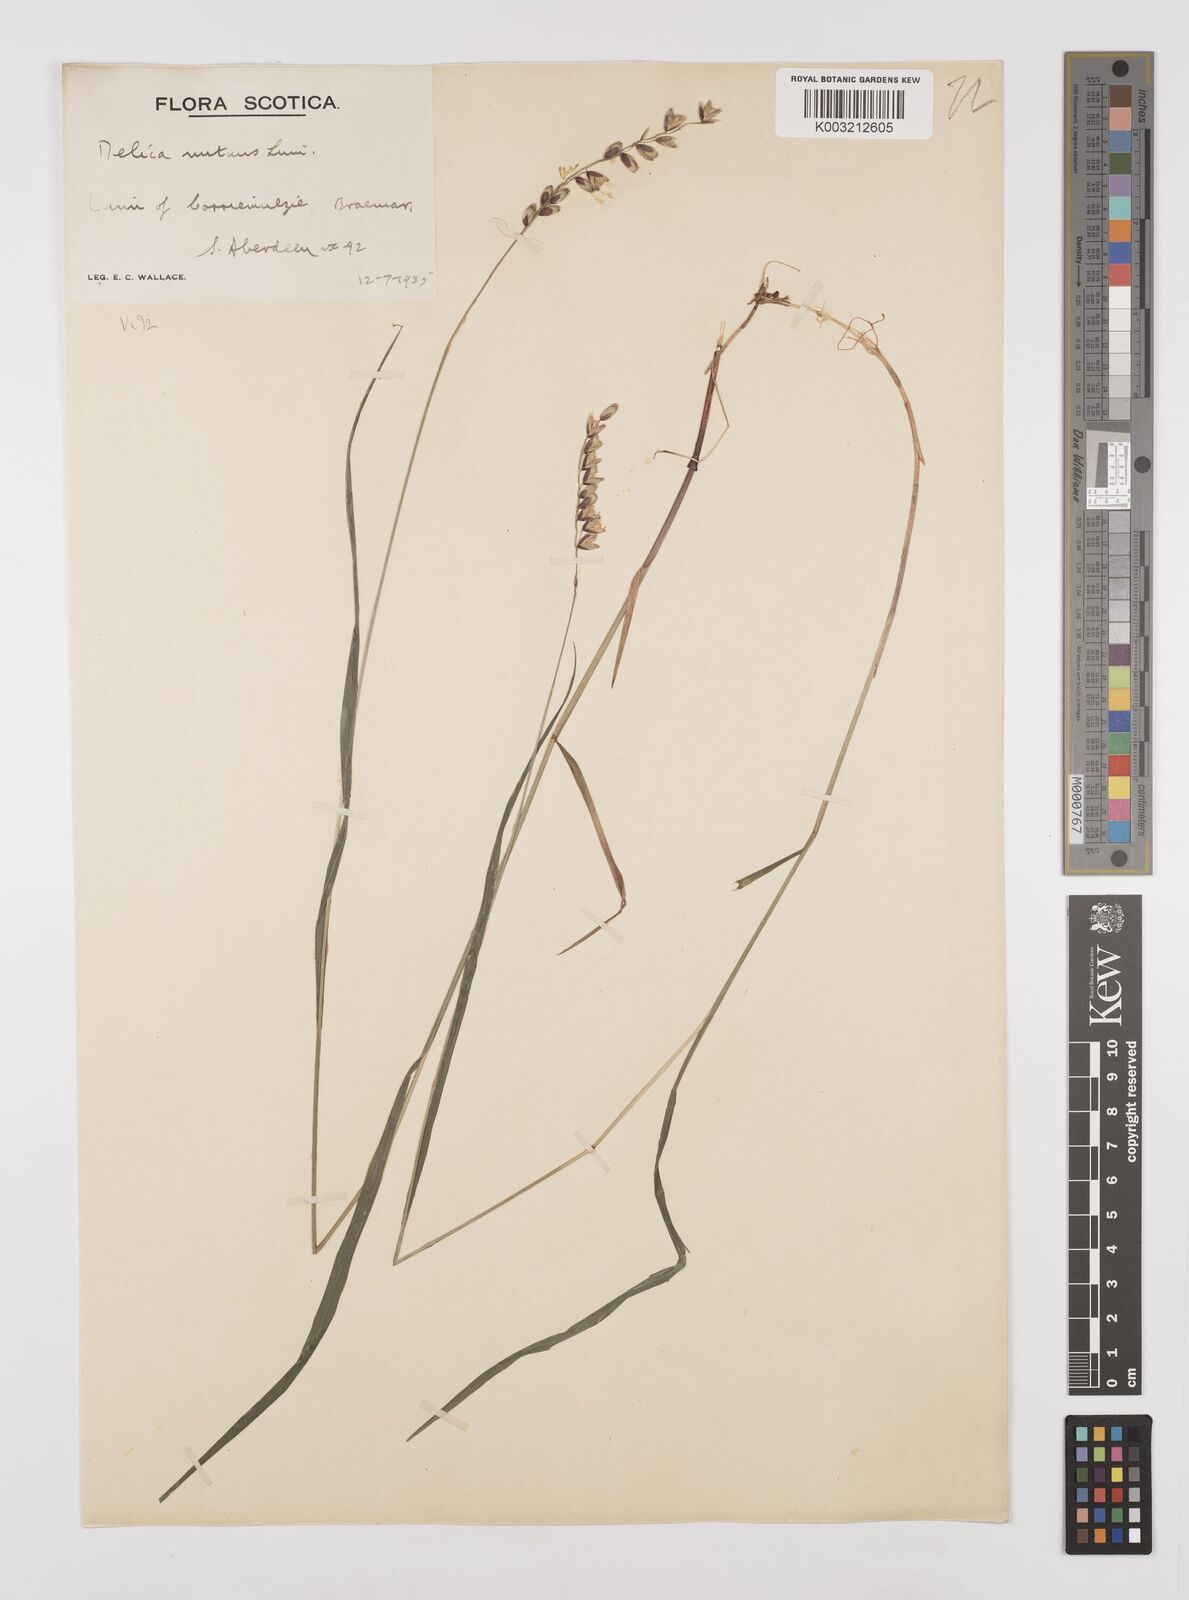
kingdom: Plantae
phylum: Tracheophyta
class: Liliopsida
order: Poales
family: Poaceae
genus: Melica
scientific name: Melica
